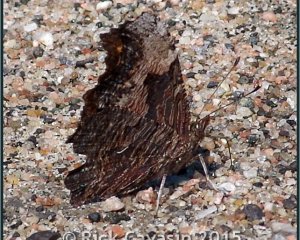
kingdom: Animalia
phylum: Arthropoda
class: Insecta
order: Lepidoptera
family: Nymphalidae
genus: Polygonia
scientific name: Polygonia progne
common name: Gray Comma
